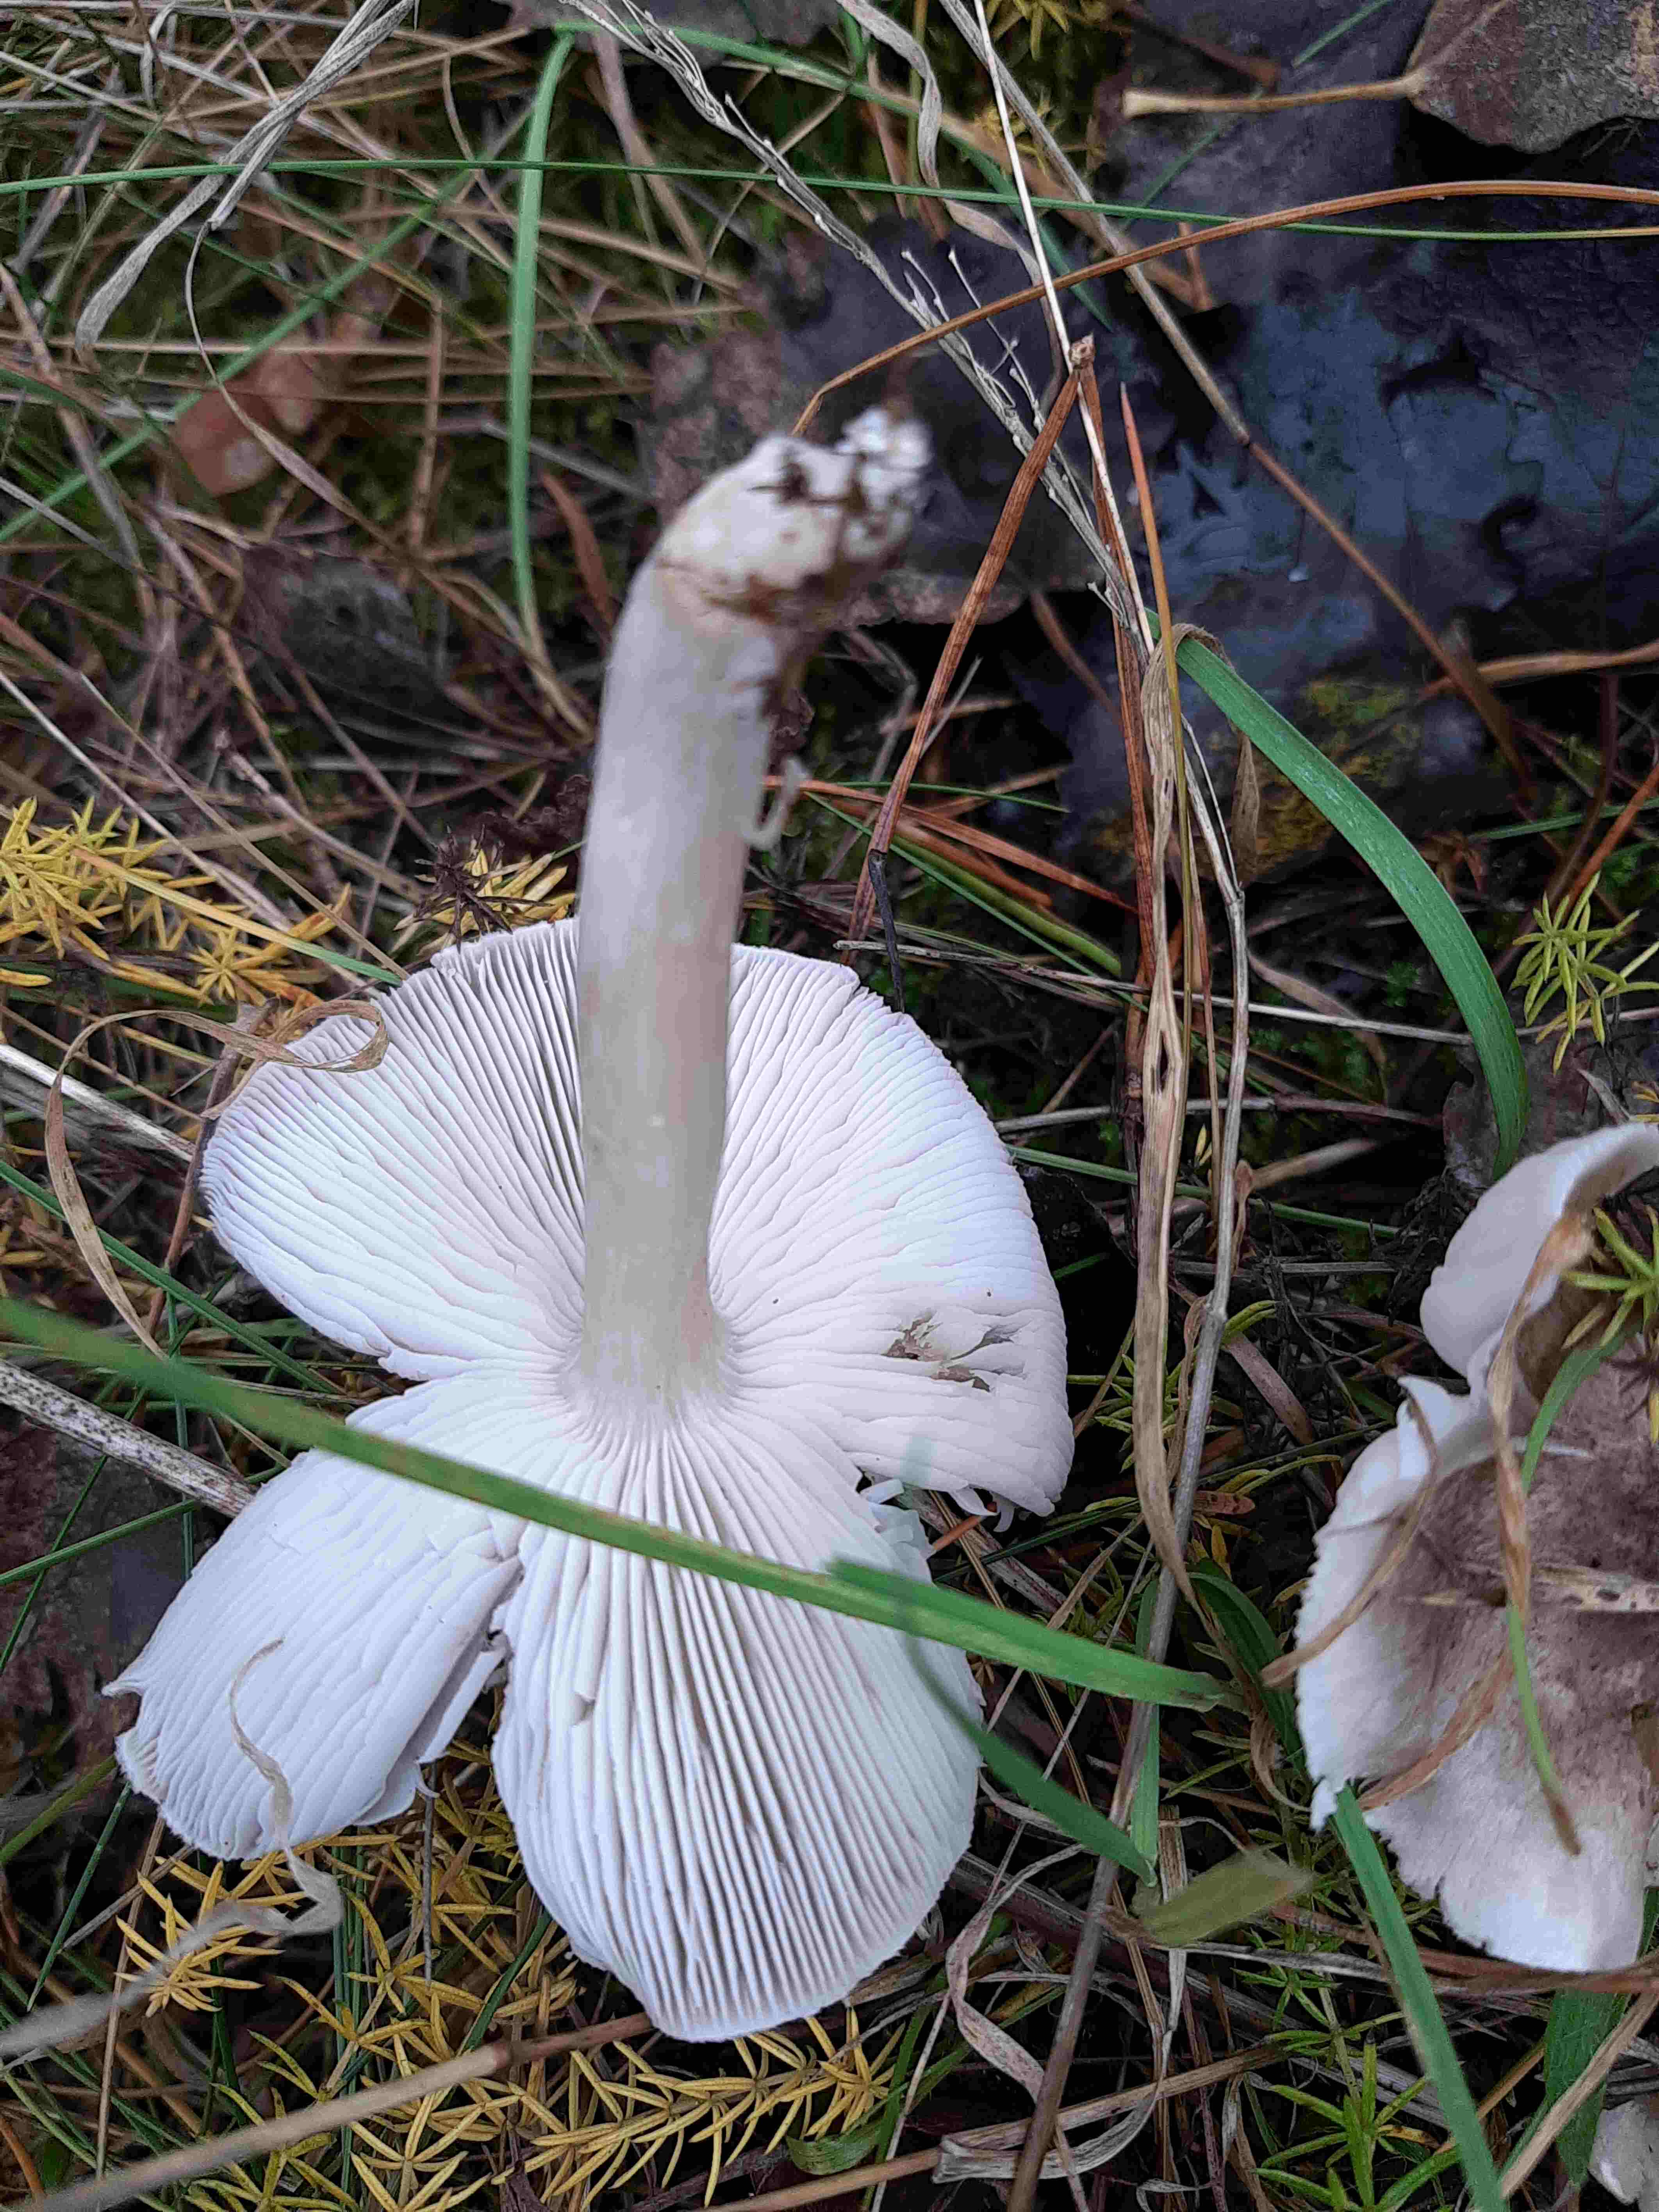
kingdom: Fungi
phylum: Basidiomycota
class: Agaricomycetes
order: Agaricales
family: Tricholomataceae
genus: Tricholoma
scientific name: Tricholoma terreum
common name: jordfarvet ridderhat
